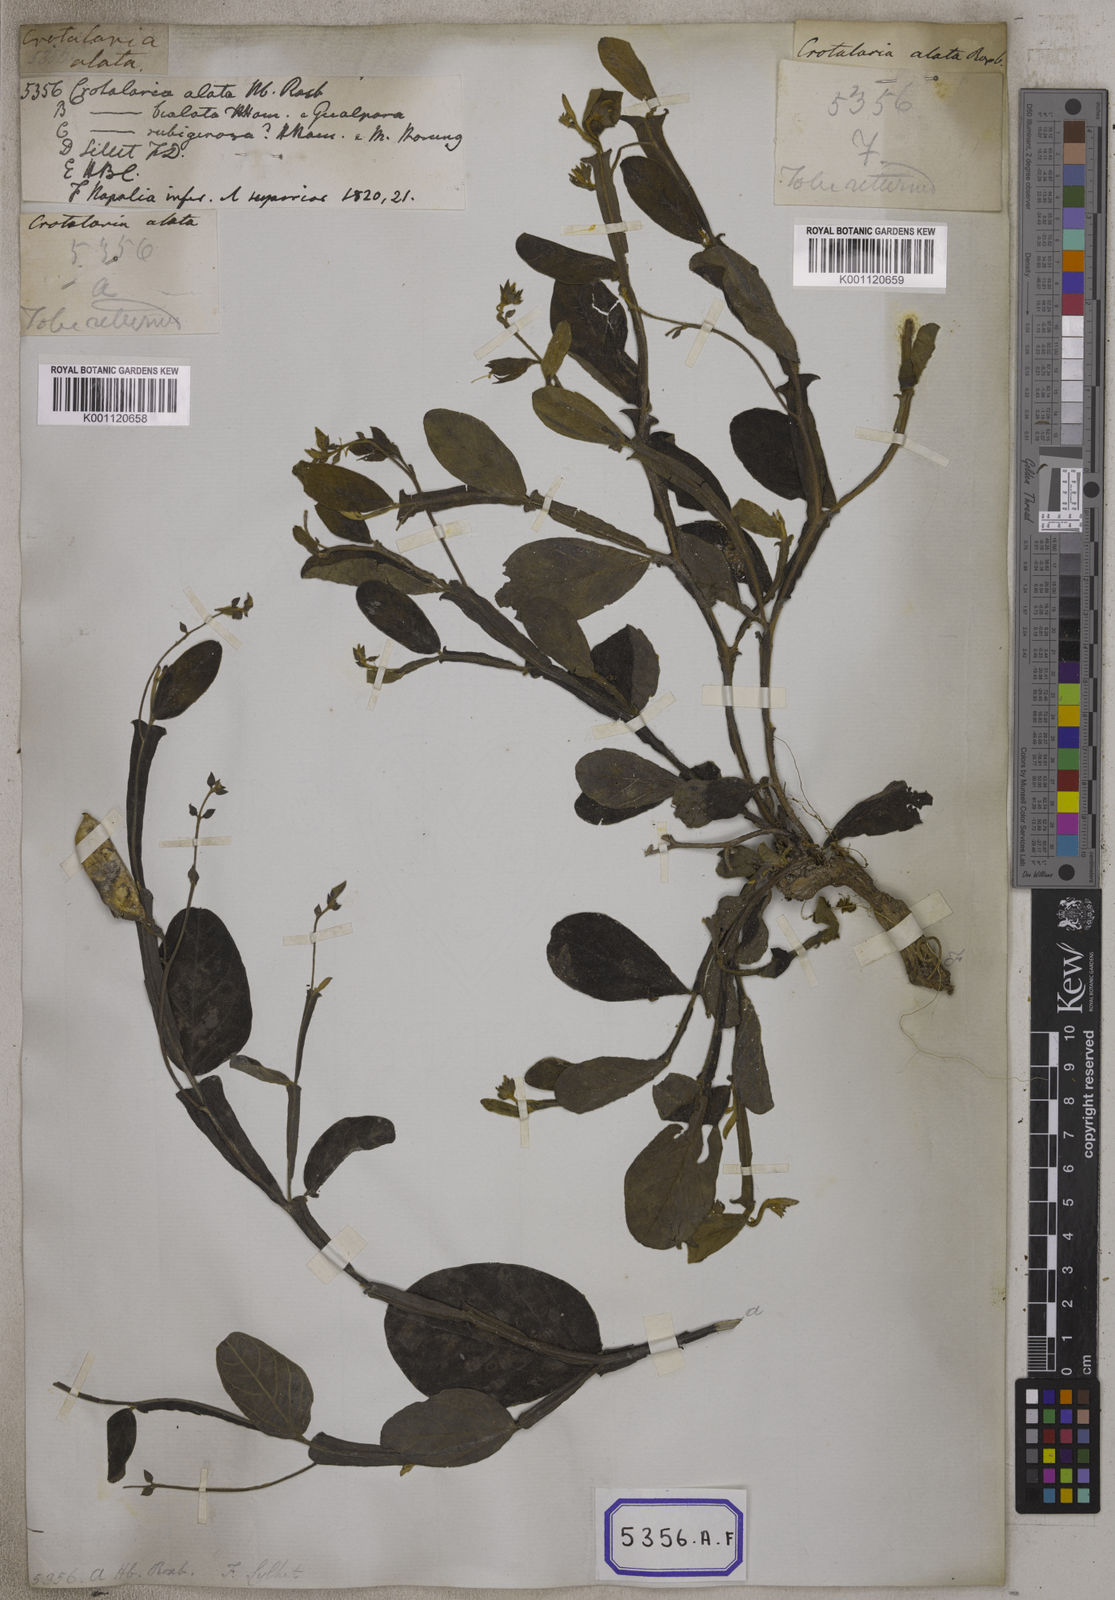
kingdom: Plantae
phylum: Tracheophyta
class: Magnoliopsida
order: Fabales
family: Fabaceae
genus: Crotalaria
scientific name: Crotalaria alata
